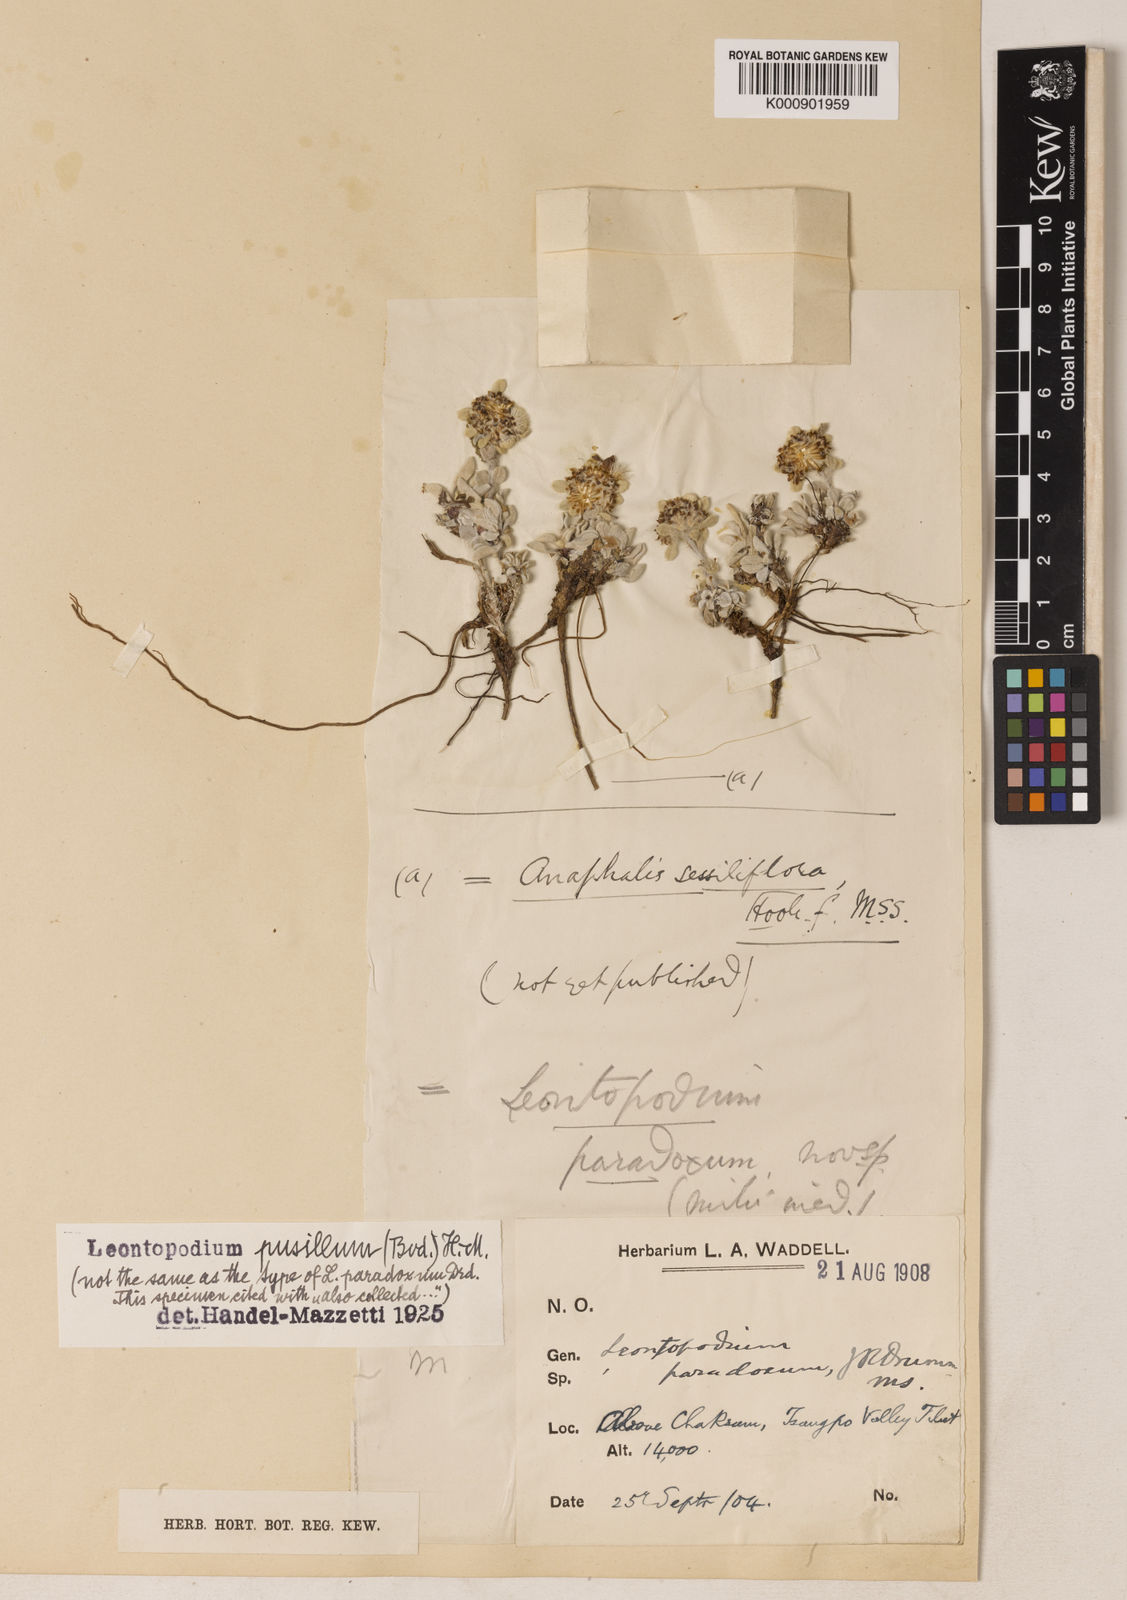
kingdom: Plantae
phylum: Tracheophyta
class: Magnoliopsida
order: Asterales
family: Asteraceae
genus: Leontopodium
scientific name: Leontopodium pusillum
